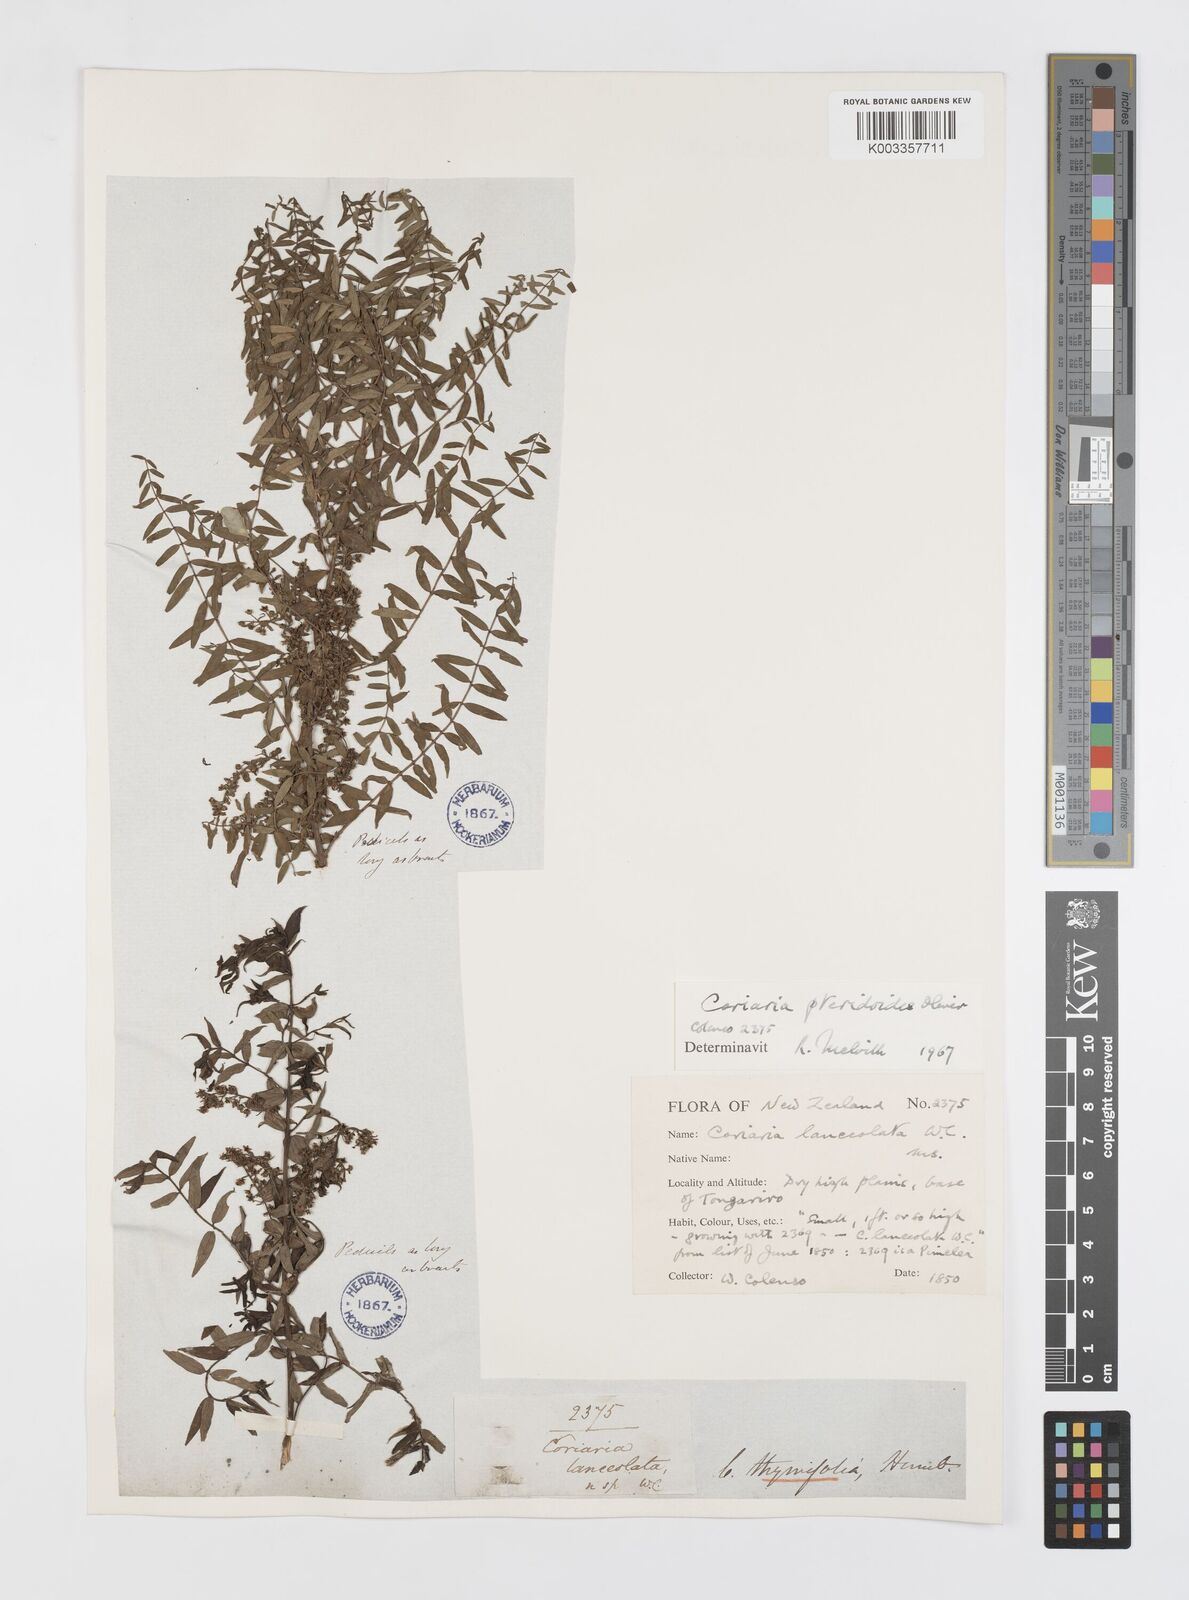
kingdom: Plantae
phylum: Tracheophyta
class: Magnoliopsida
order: Cucurbitales
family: Coriariaceae
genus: Coriaria
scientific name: Coriaria pteridoides
